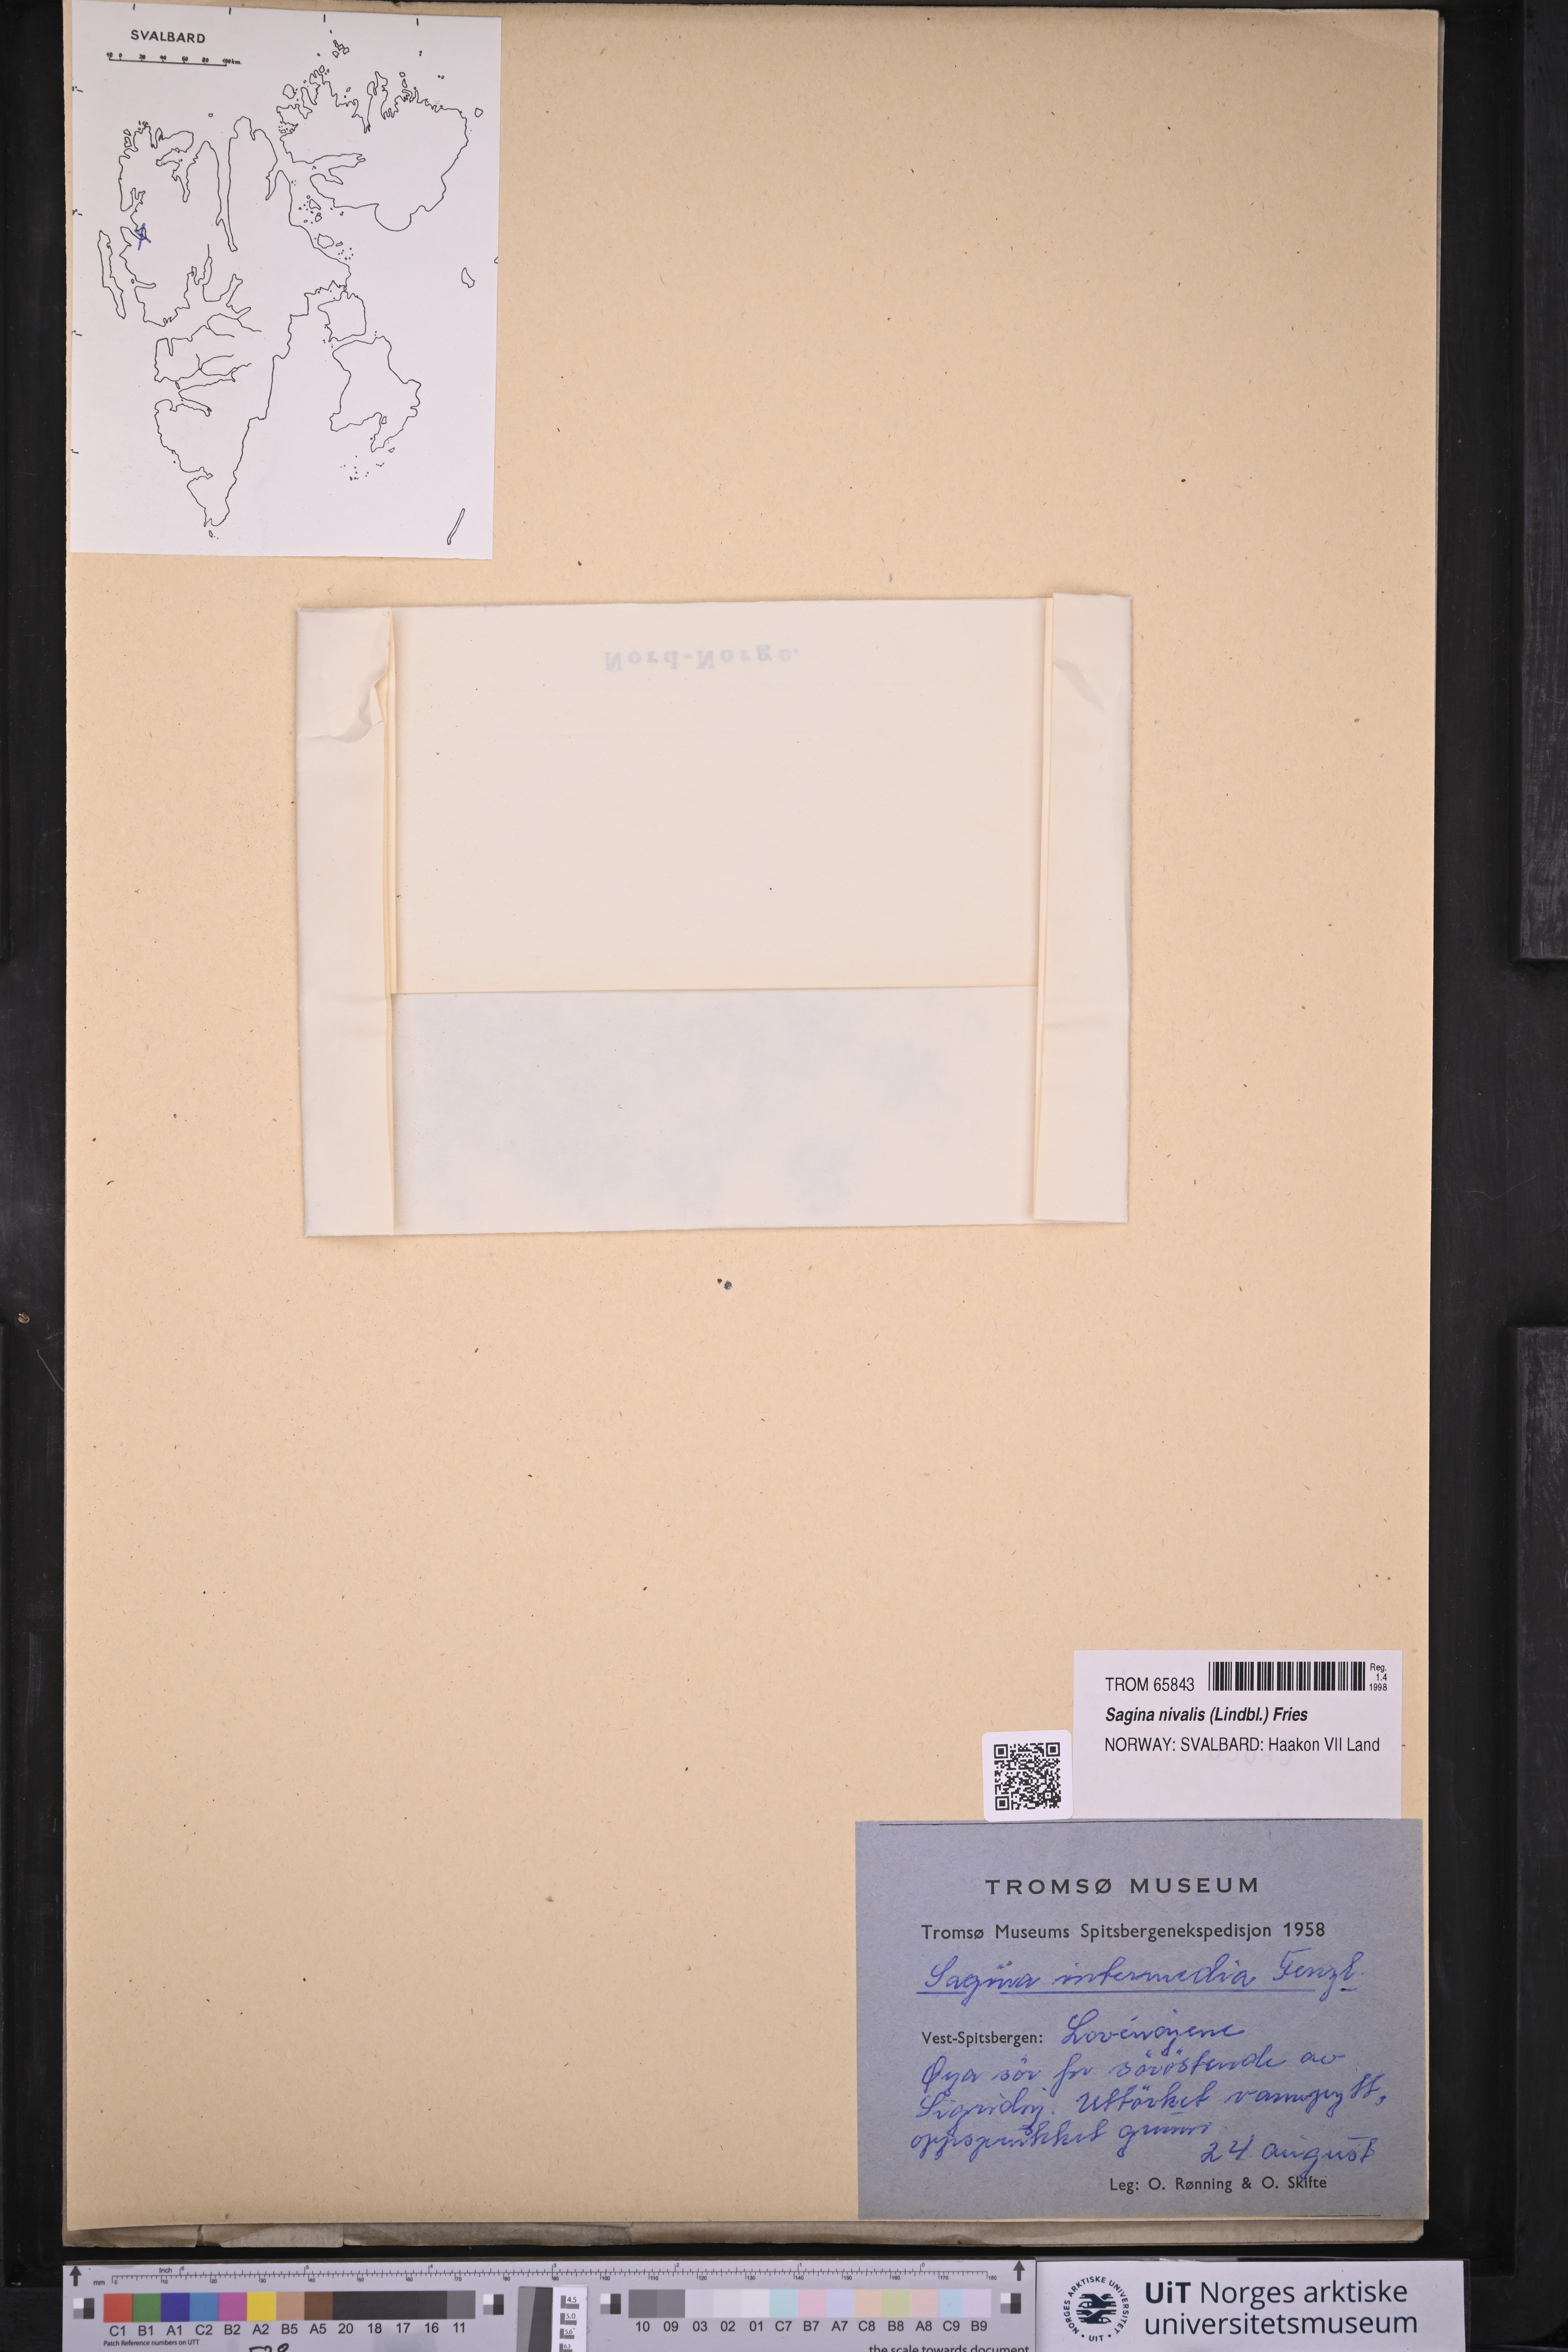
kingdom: Plantae
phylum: Tracheophyta
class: Magnoliopsida
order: Caryophyllales
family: Caryophyllaceae
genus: Sagina
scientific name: Sagina nivalis
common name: Snow pearlwort
